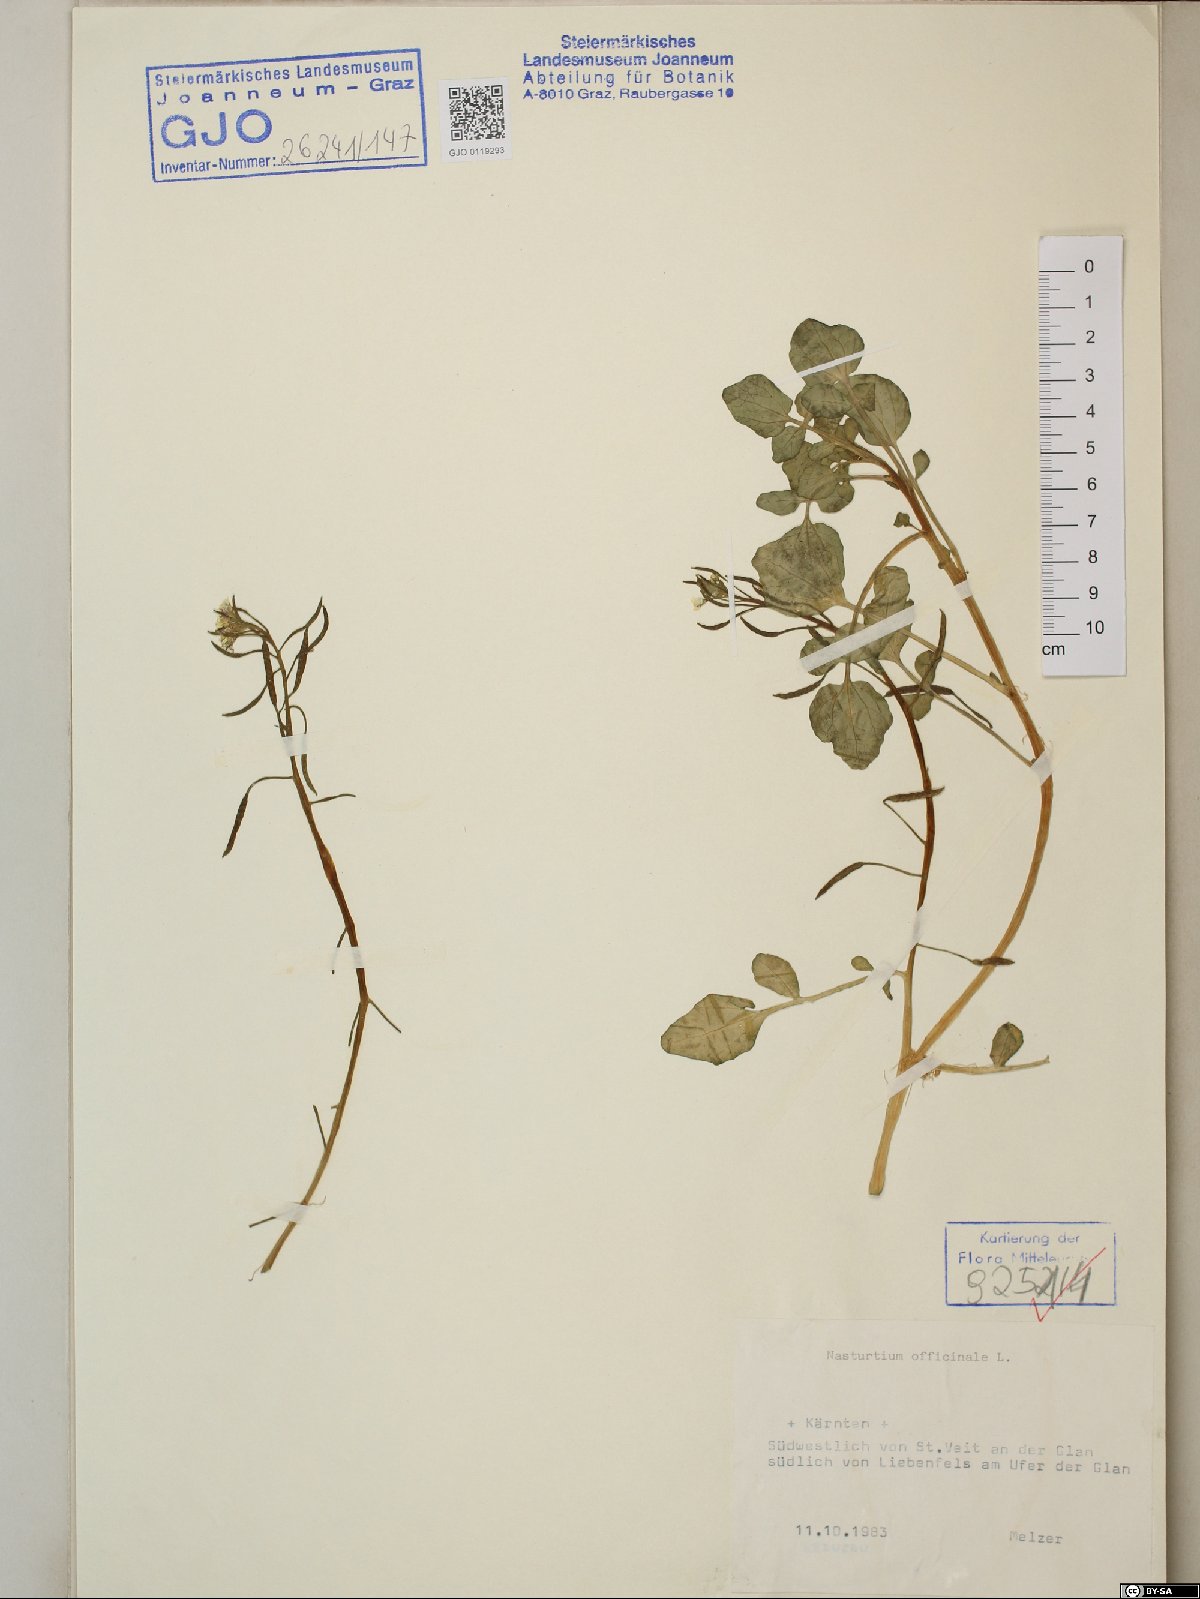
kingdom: Plantae
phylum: Tracheophyta
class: Magnoliopsida
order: Brassicales
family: Brassicaceae
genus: Nasturtium
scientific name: Nasturtium officinale
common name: Watercress
